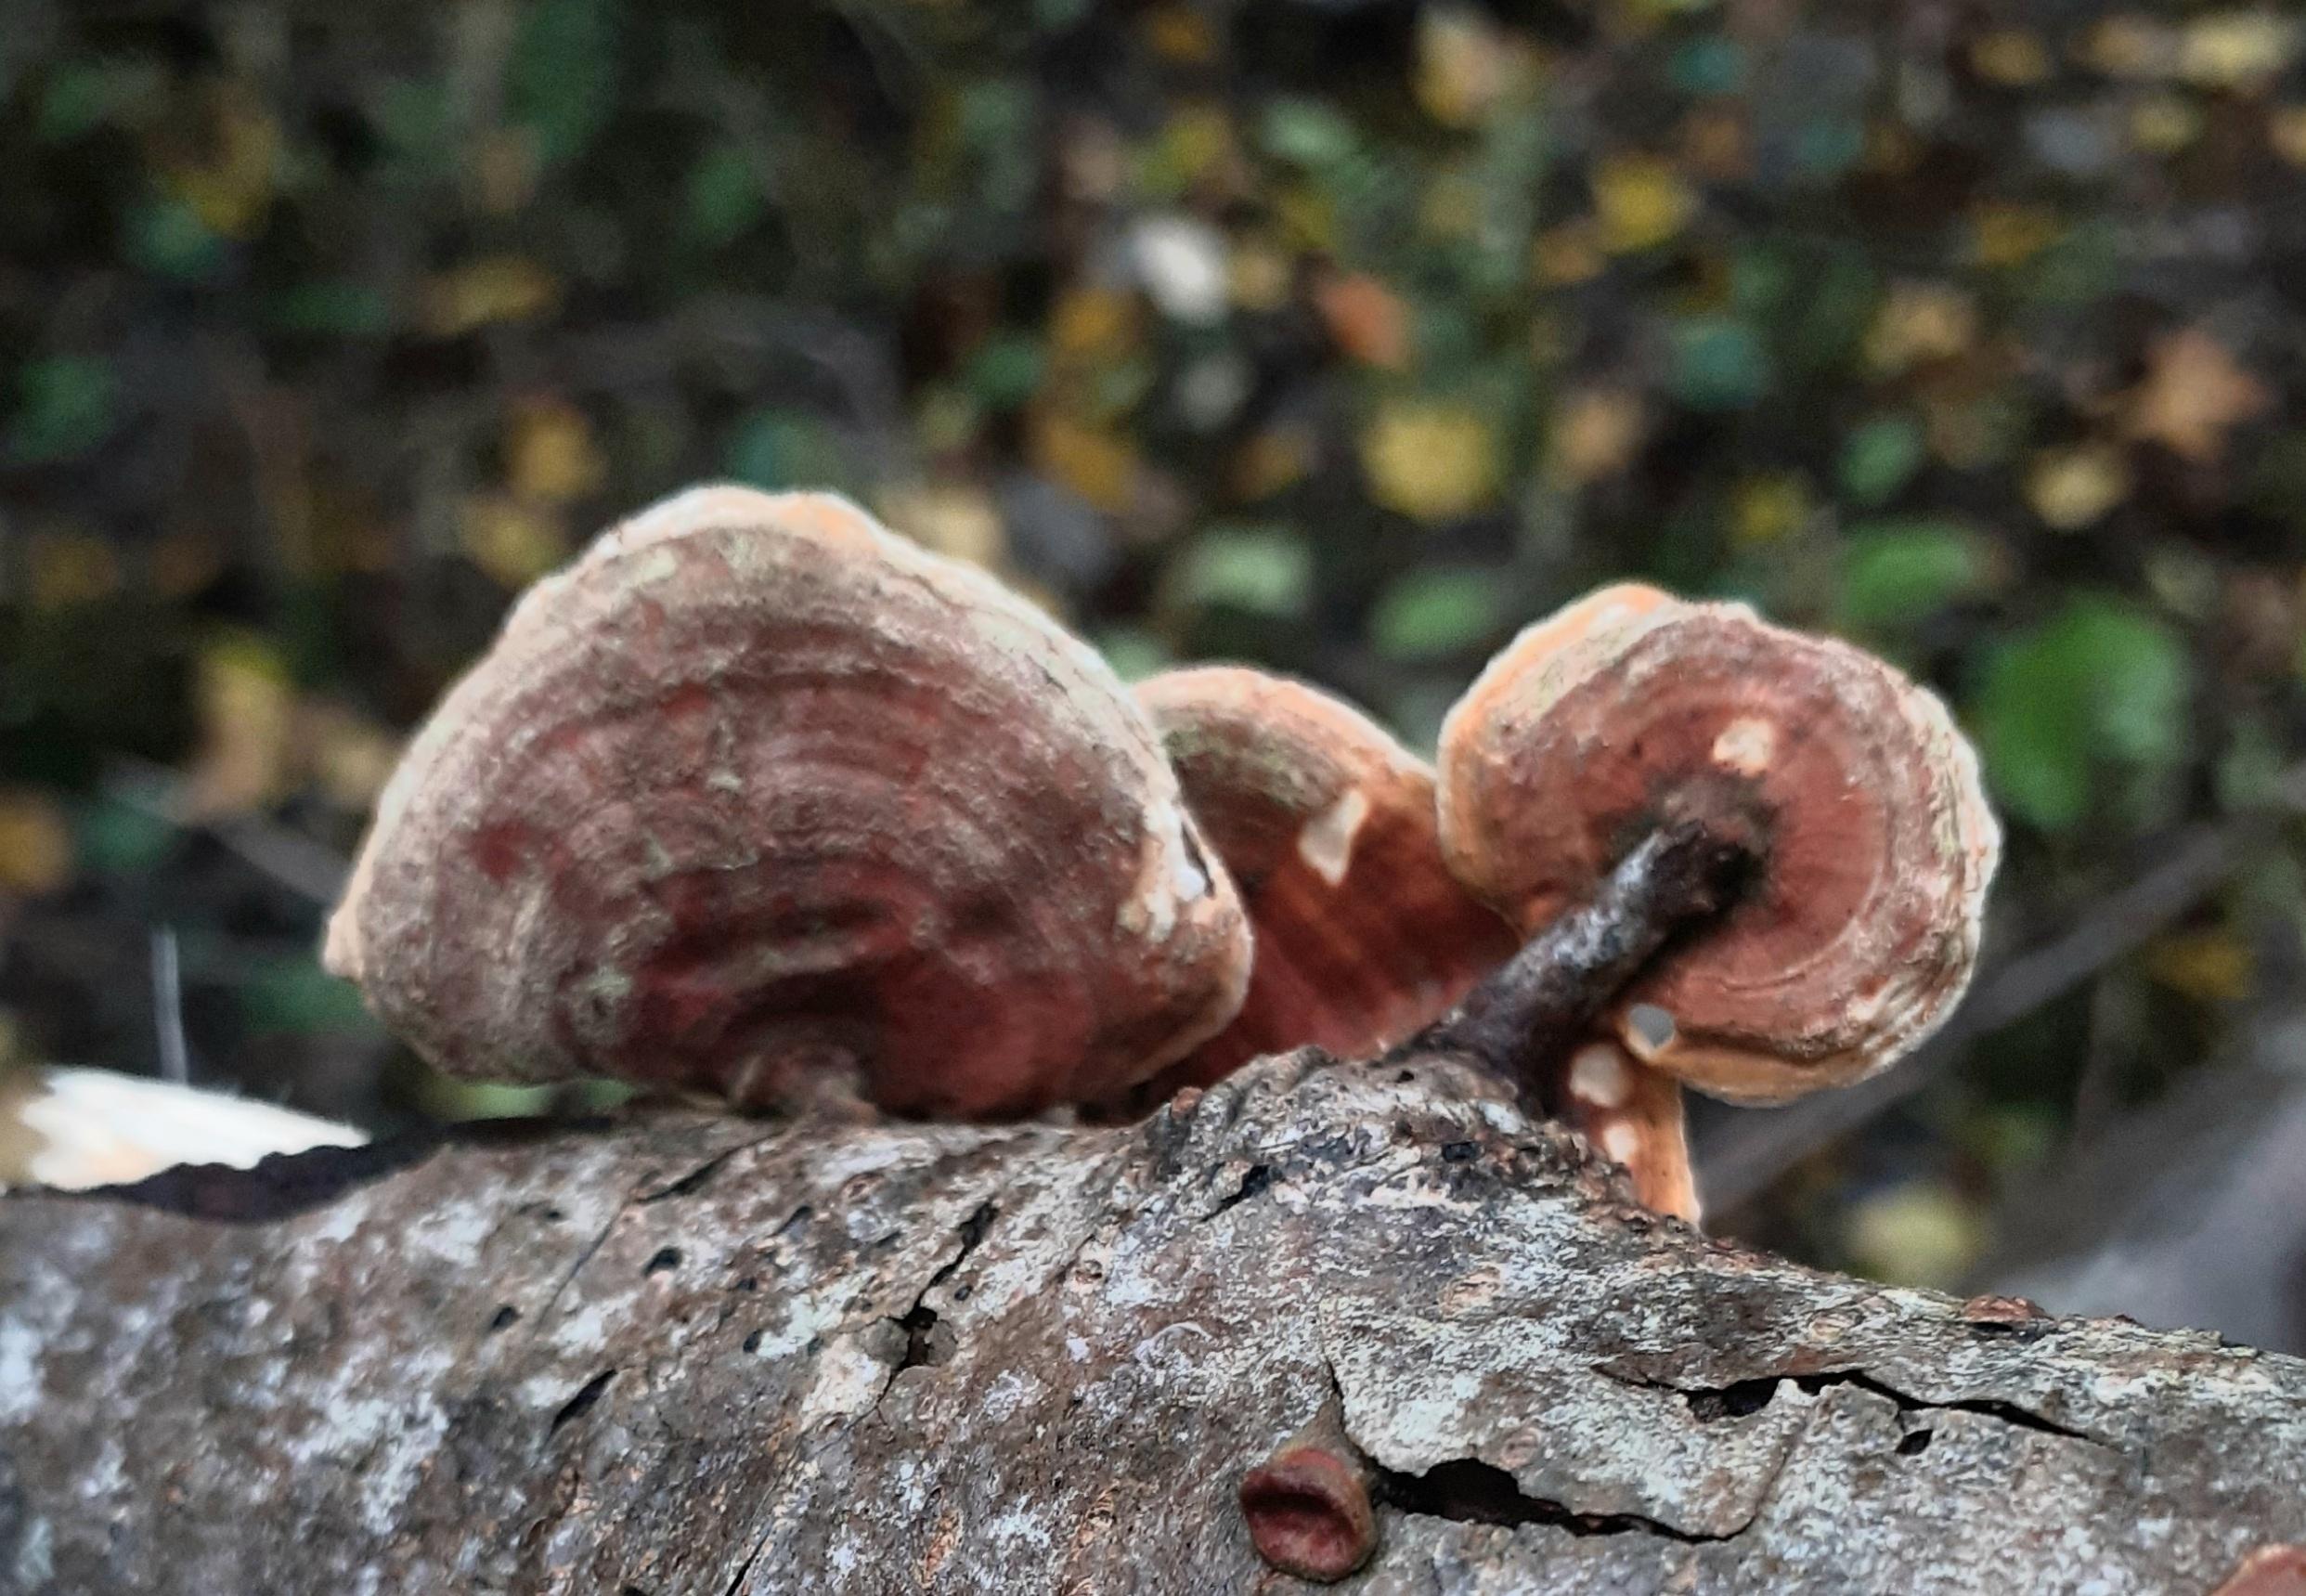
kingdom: Fungi
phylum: Basidiomycota
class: Agaricomycetes
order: Russulales
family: Stereaceae
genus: Stereum
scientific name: Stereum subtomentosum
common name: smuk lædersvamp
